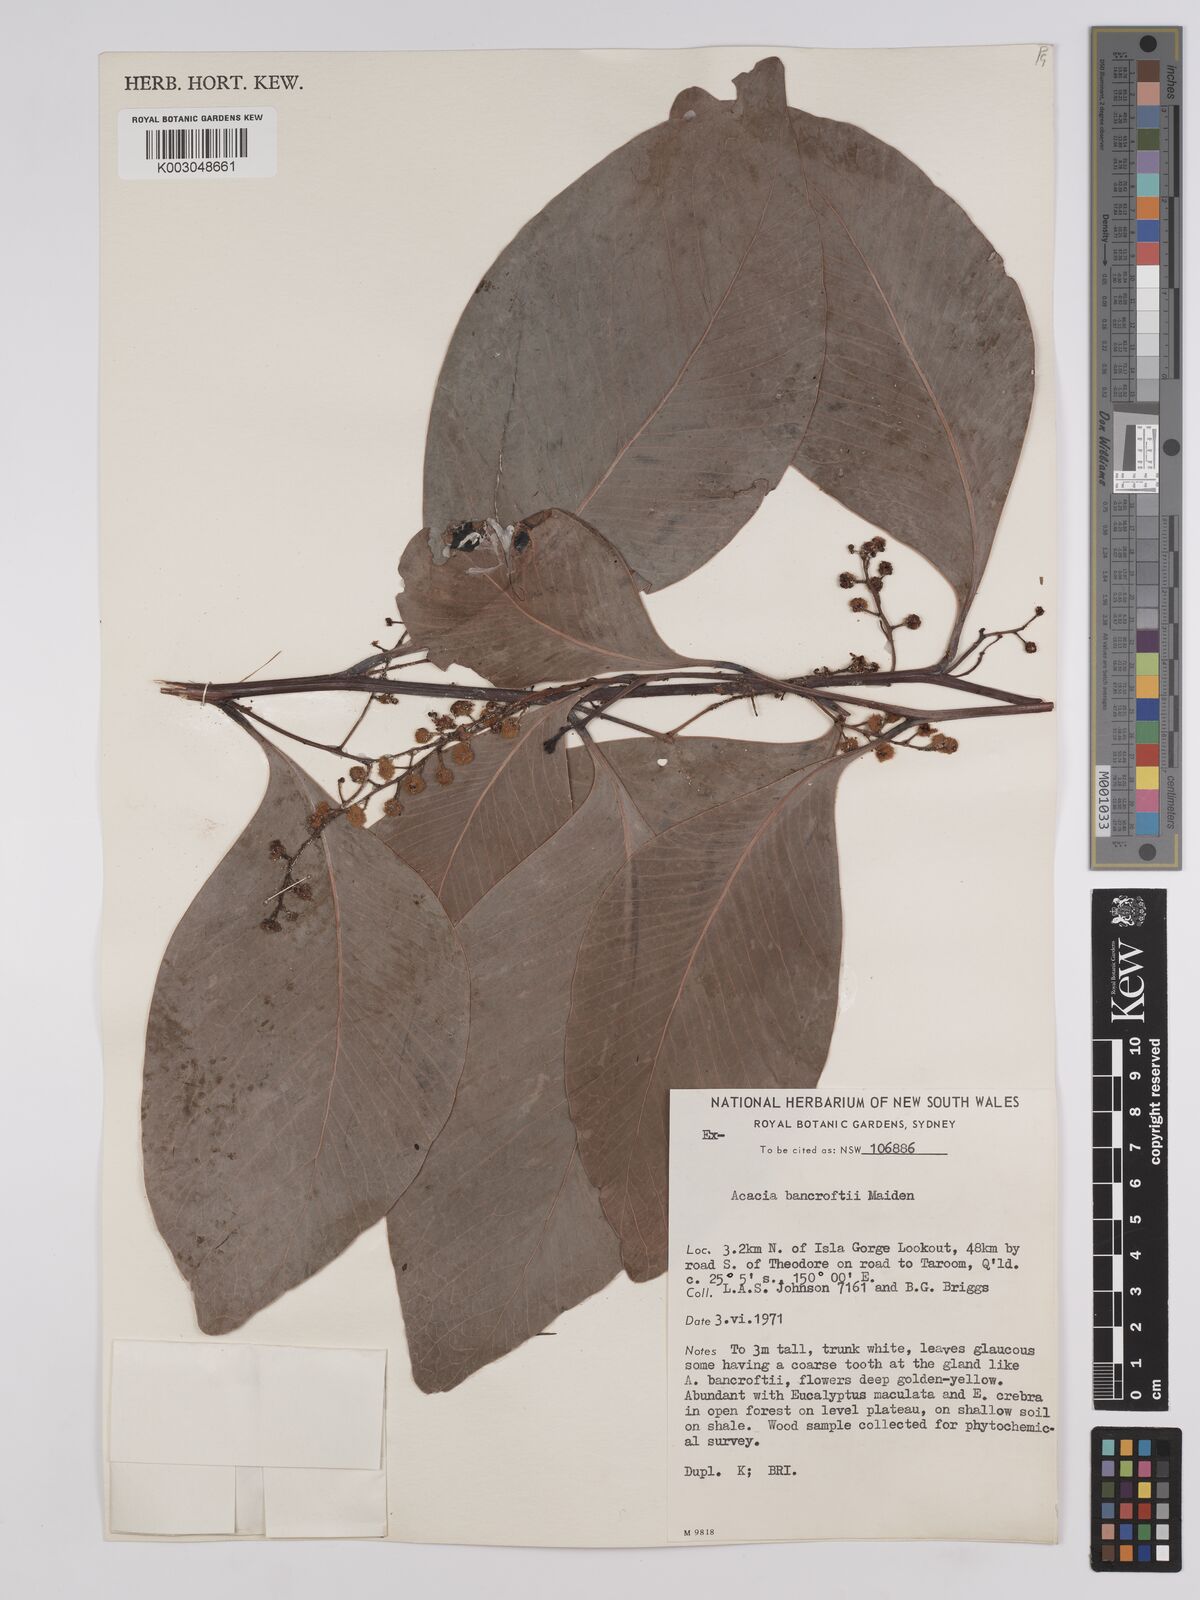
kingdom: Plantae
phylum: Tracheophyta
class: Magnoliopsida
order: Fabales
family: Fabaceae
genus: Acacia
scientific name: Acacia
